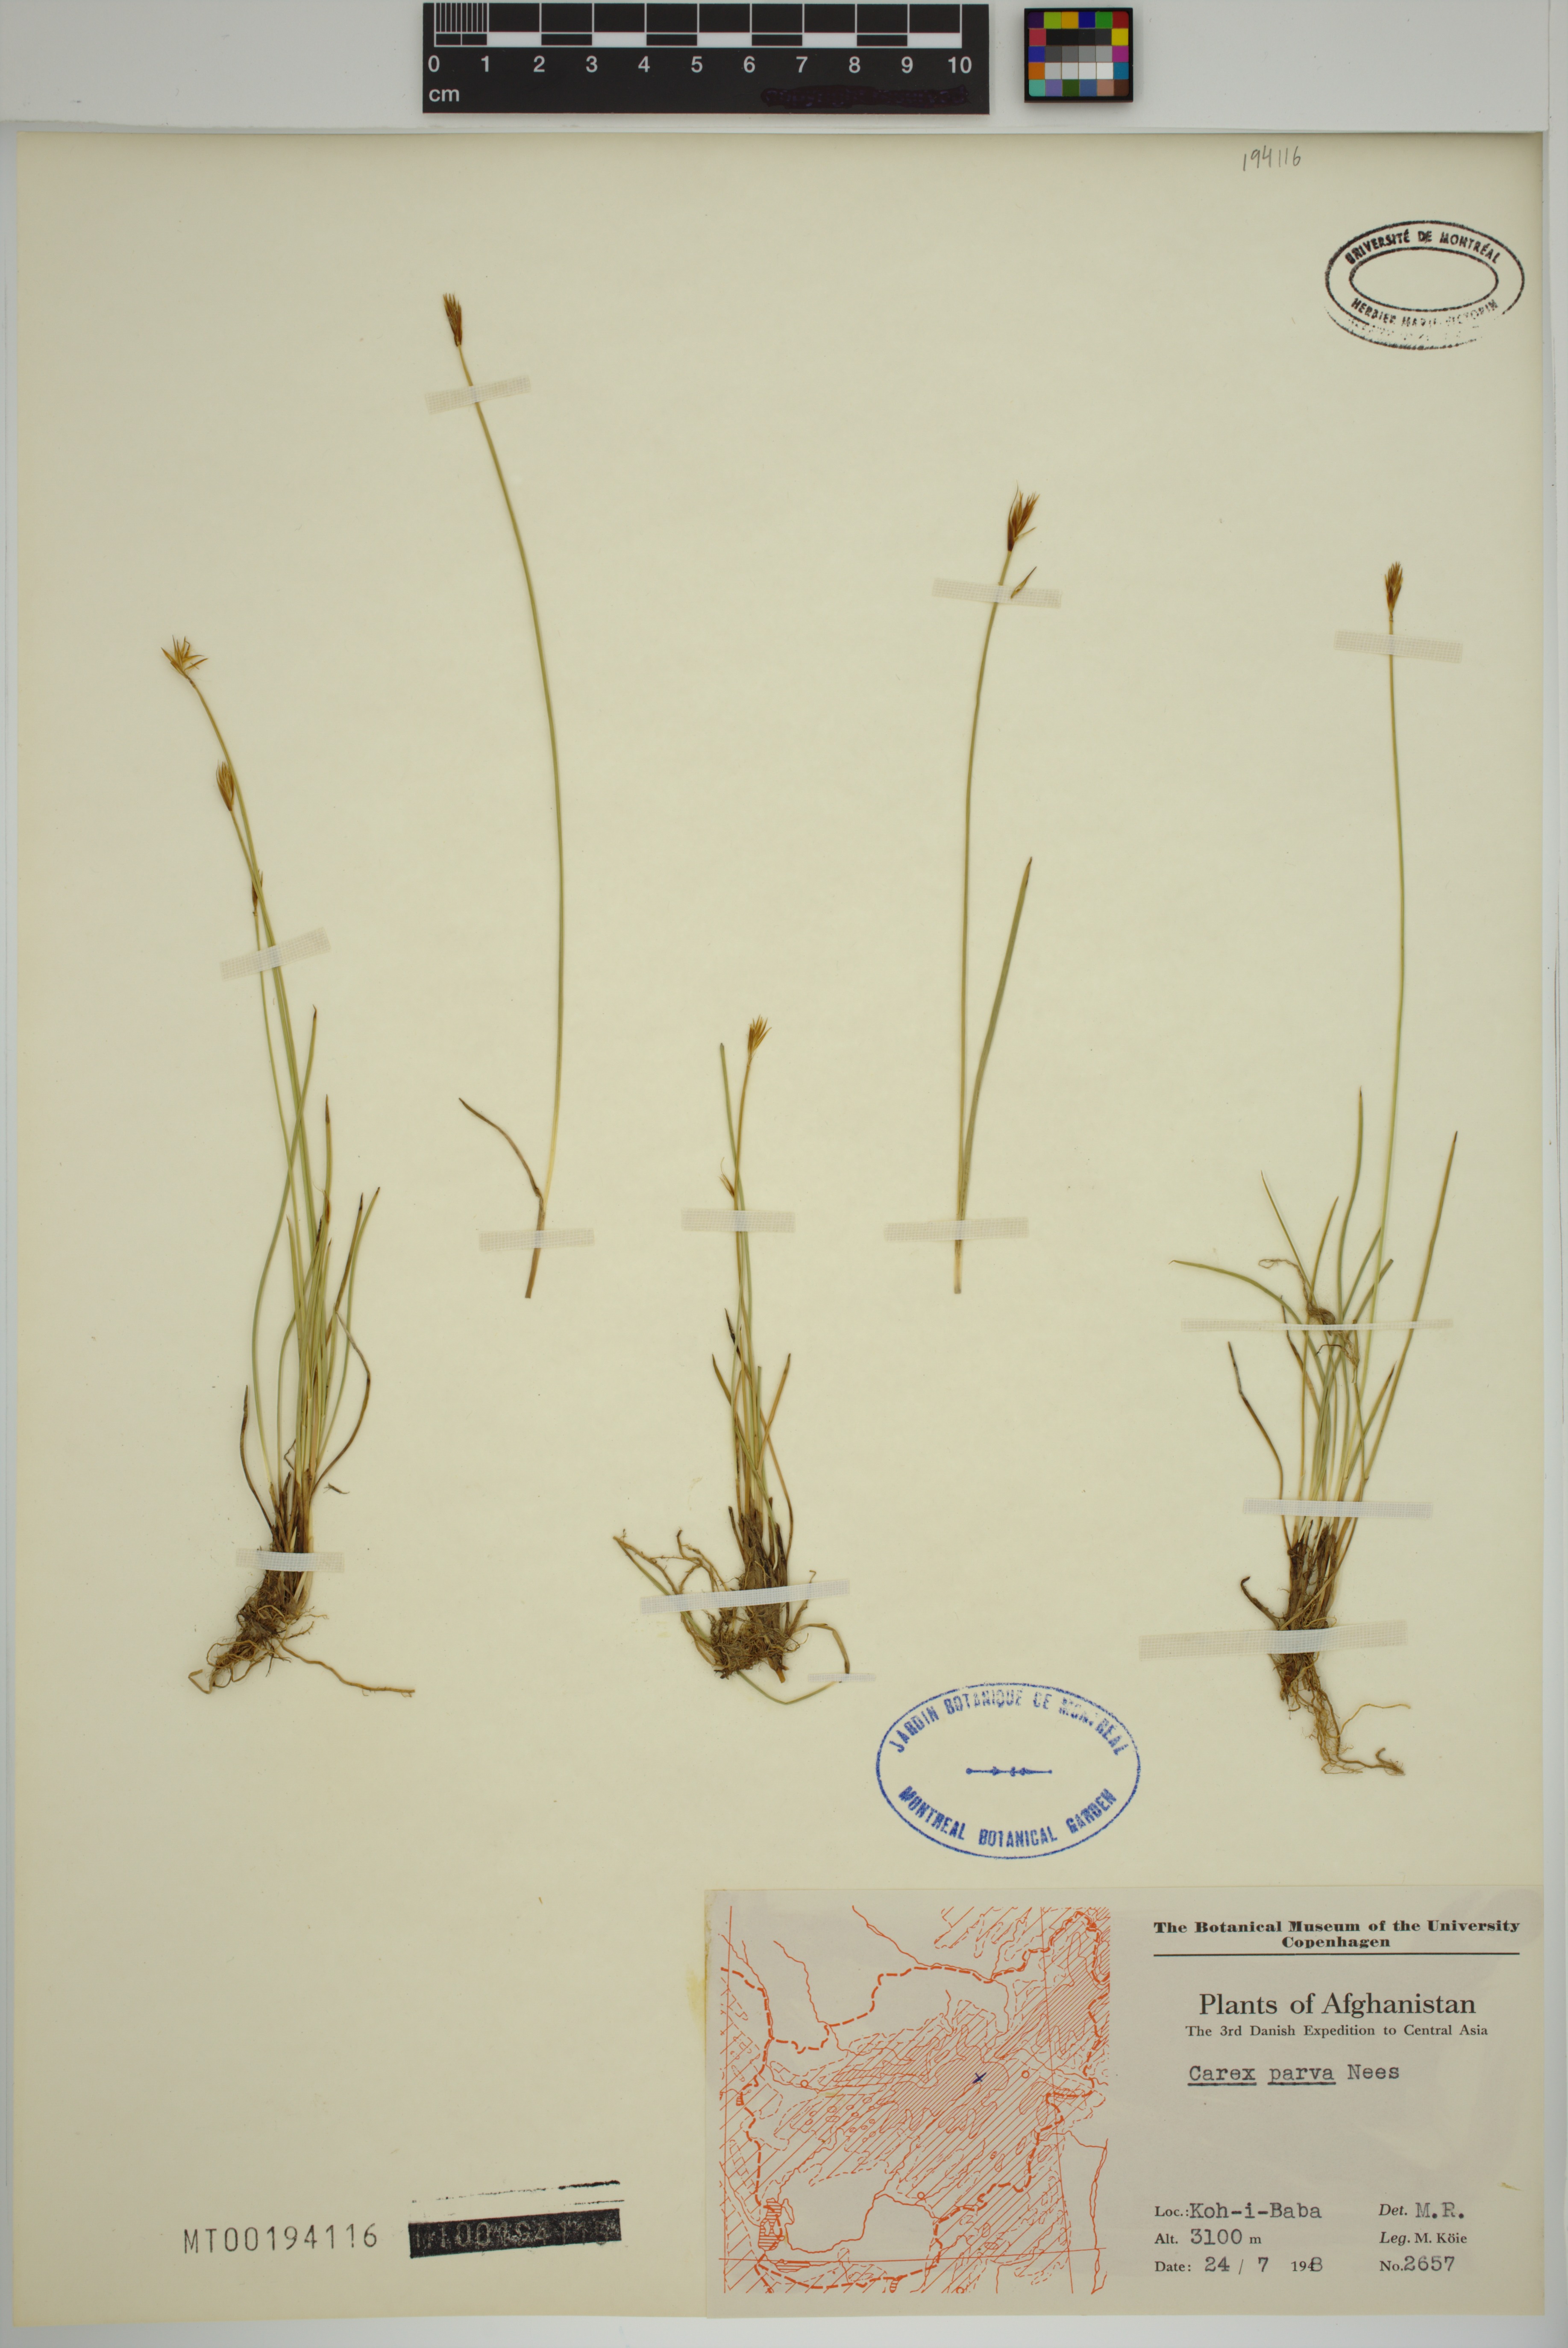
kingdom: Plantae
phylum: Tracheophyta
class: Liliopsida
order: Poales
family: Cyperaceae
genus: Carex
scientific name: Carex parva
